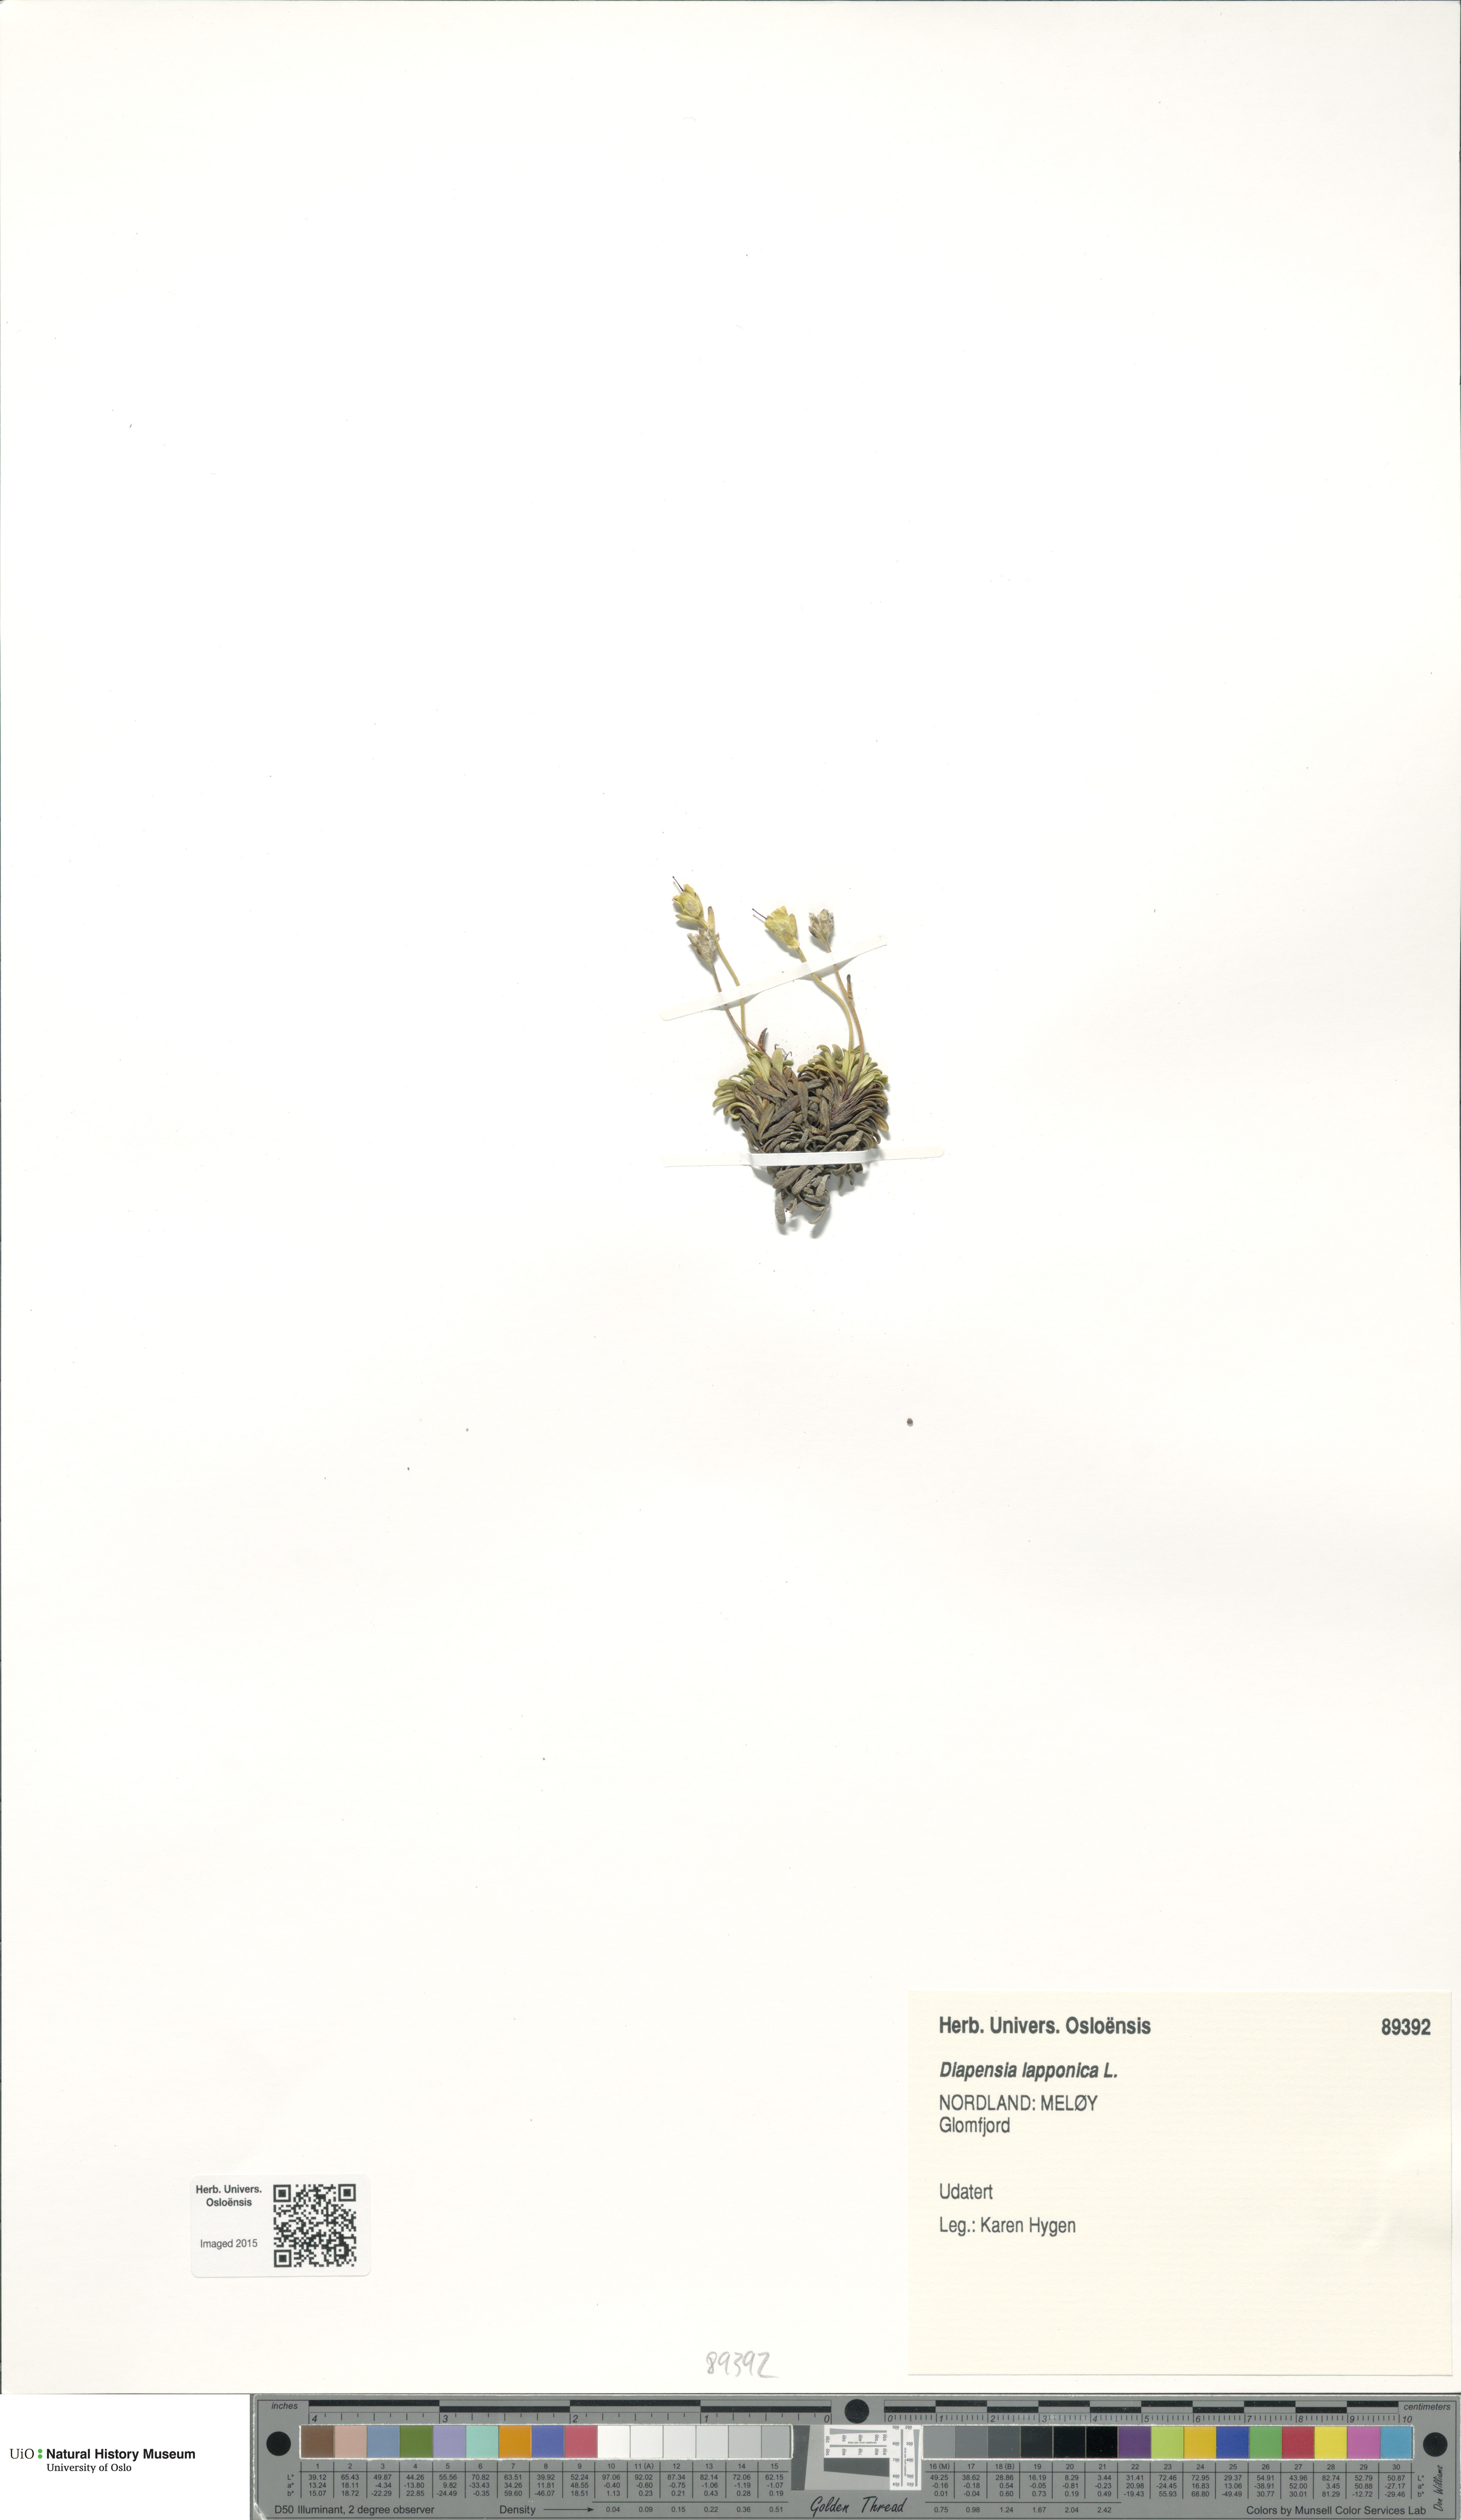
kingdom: Plantae
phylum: Tracheophyta
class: Magnoliopsida
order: Ericales
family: Diapensiaceae
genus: Diapensia
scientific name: Diapensia lapponica
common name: Diapensia
